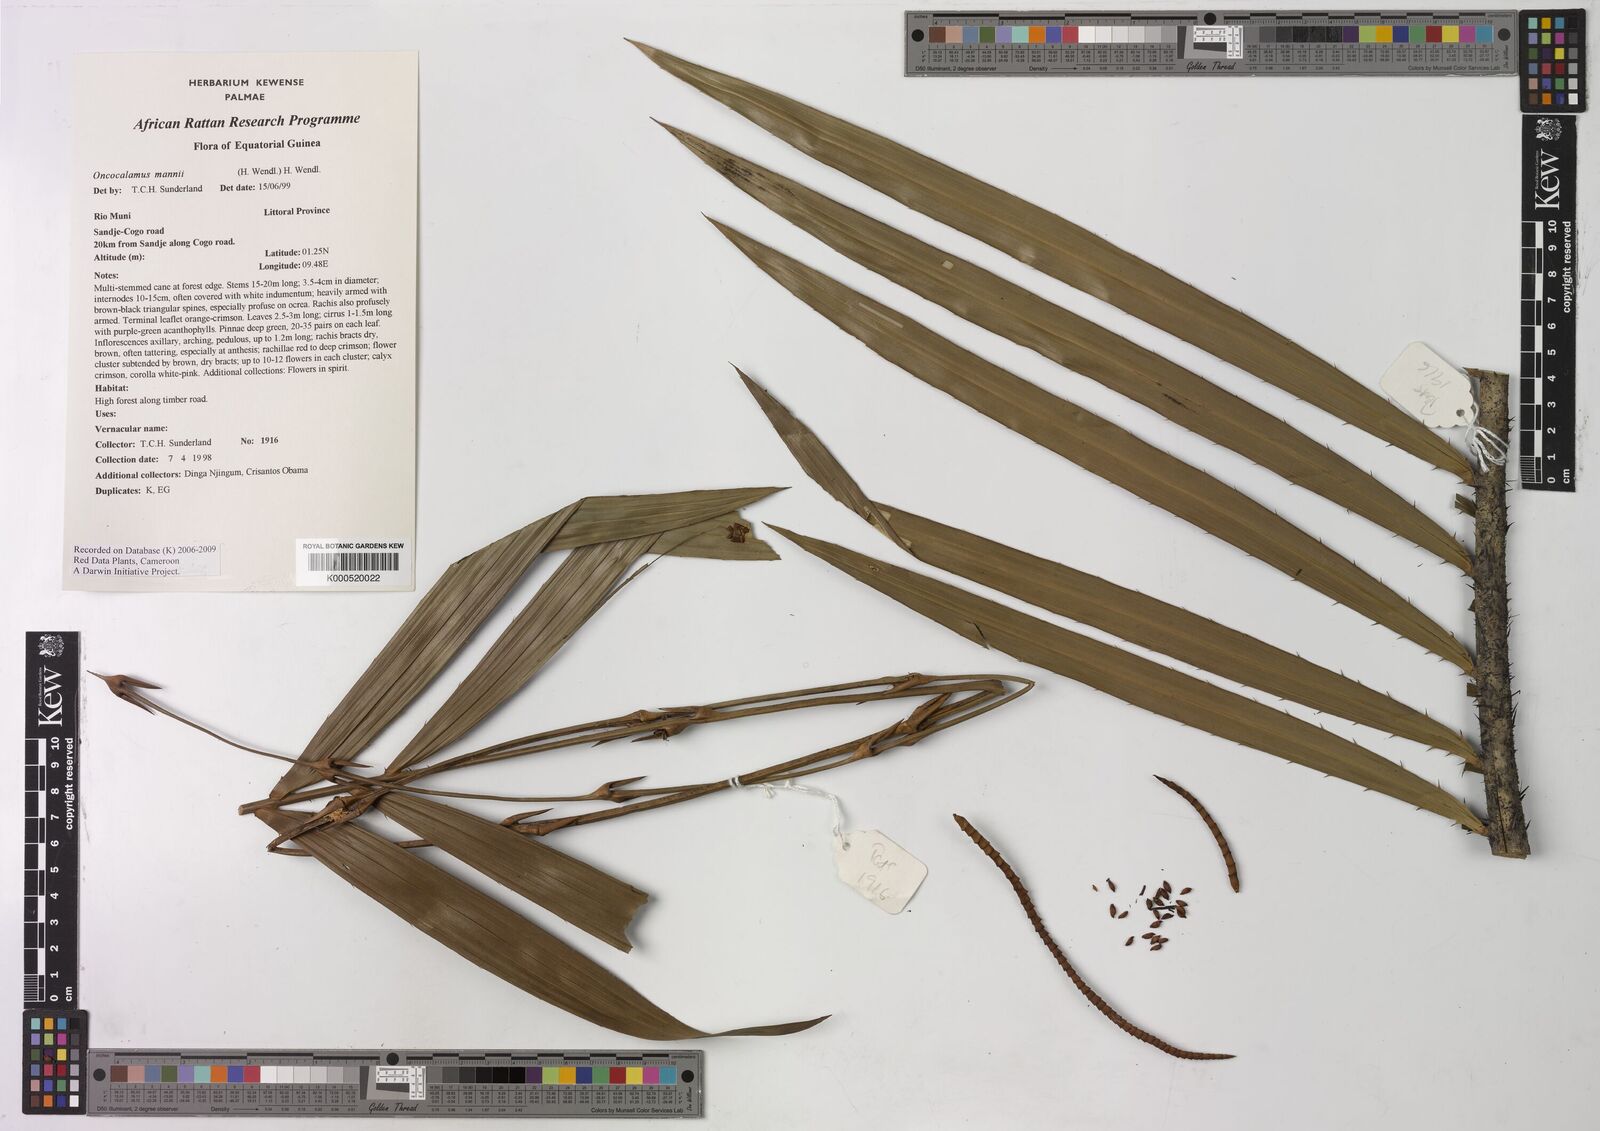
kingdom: Plantae
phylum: Tracheophyta
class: Liliopsida
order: Arecales
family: Arecaceae
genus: Oncocalamus
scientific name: Oncocalamus mannii
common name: Rattan
